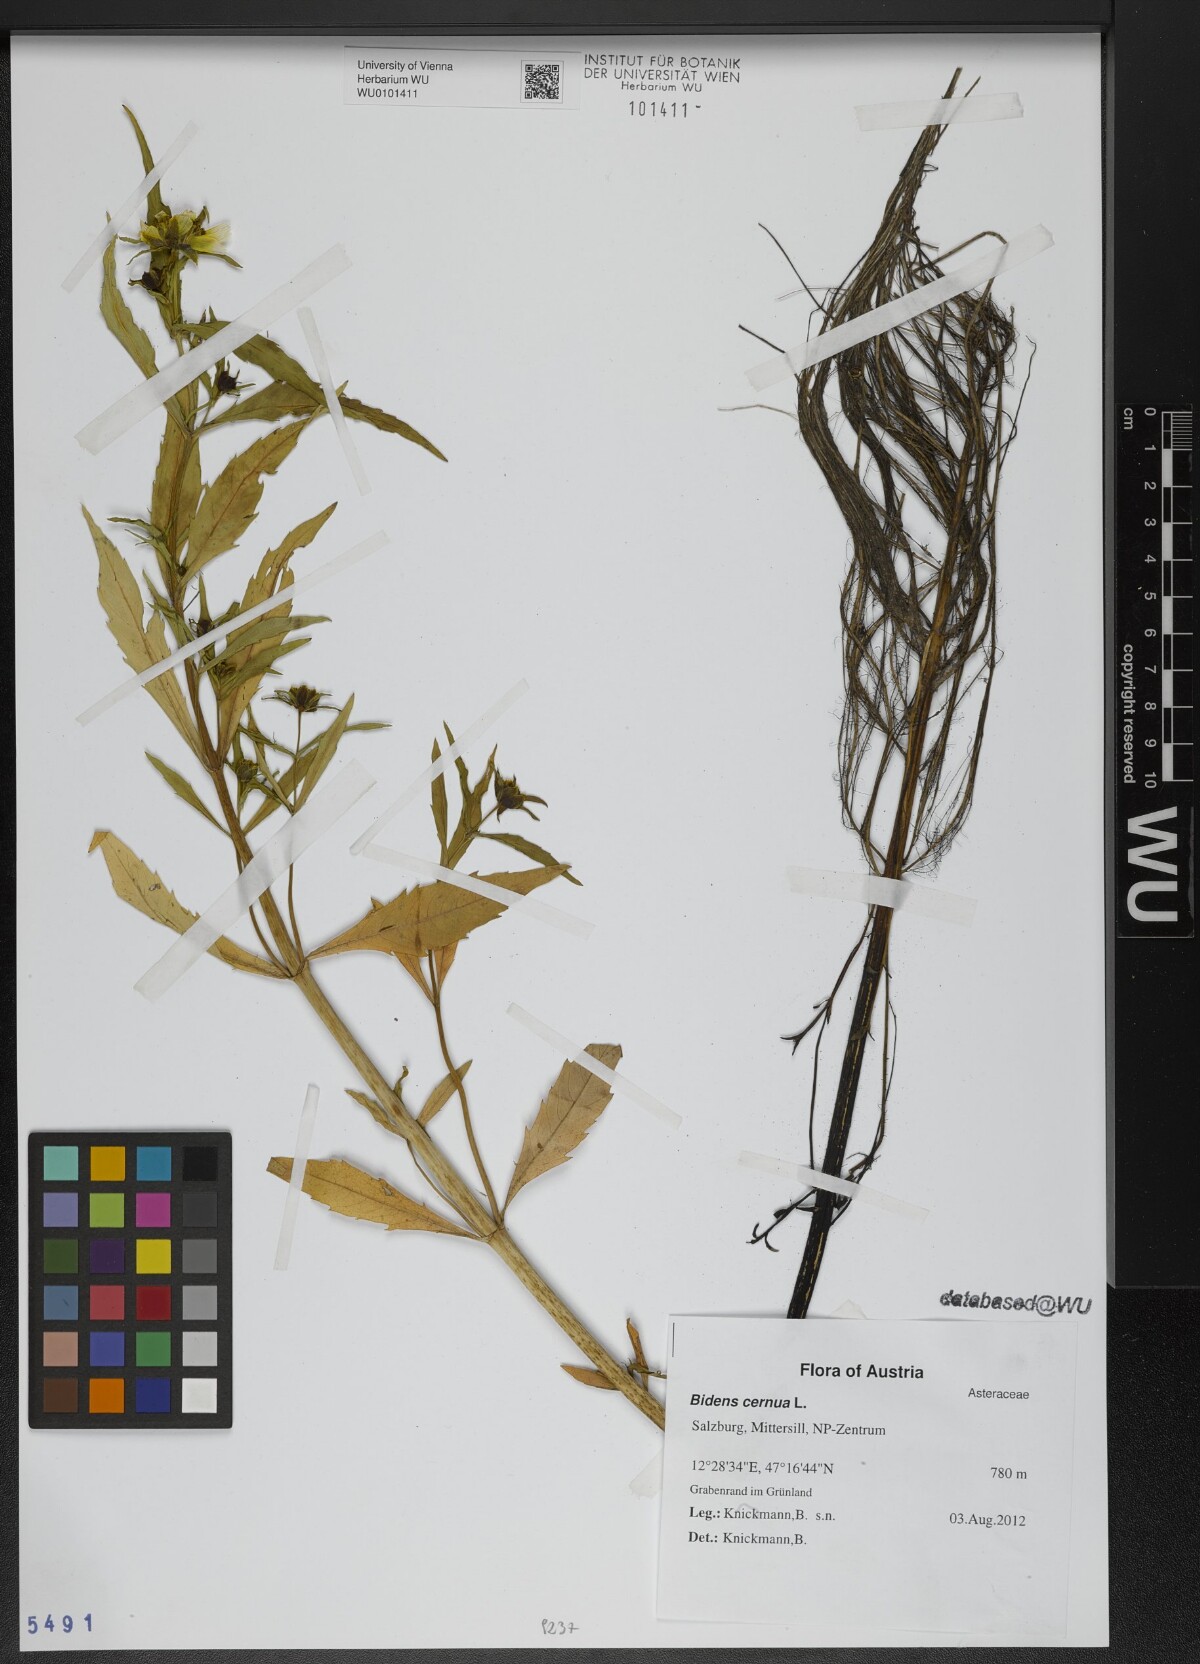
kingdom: Plantae
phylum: Tracheophyta
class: Magnoliopsida
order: Asterales
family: Asteraceae
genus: Bidens
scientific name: Bidens cernua
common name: Nodding bur-marigold
